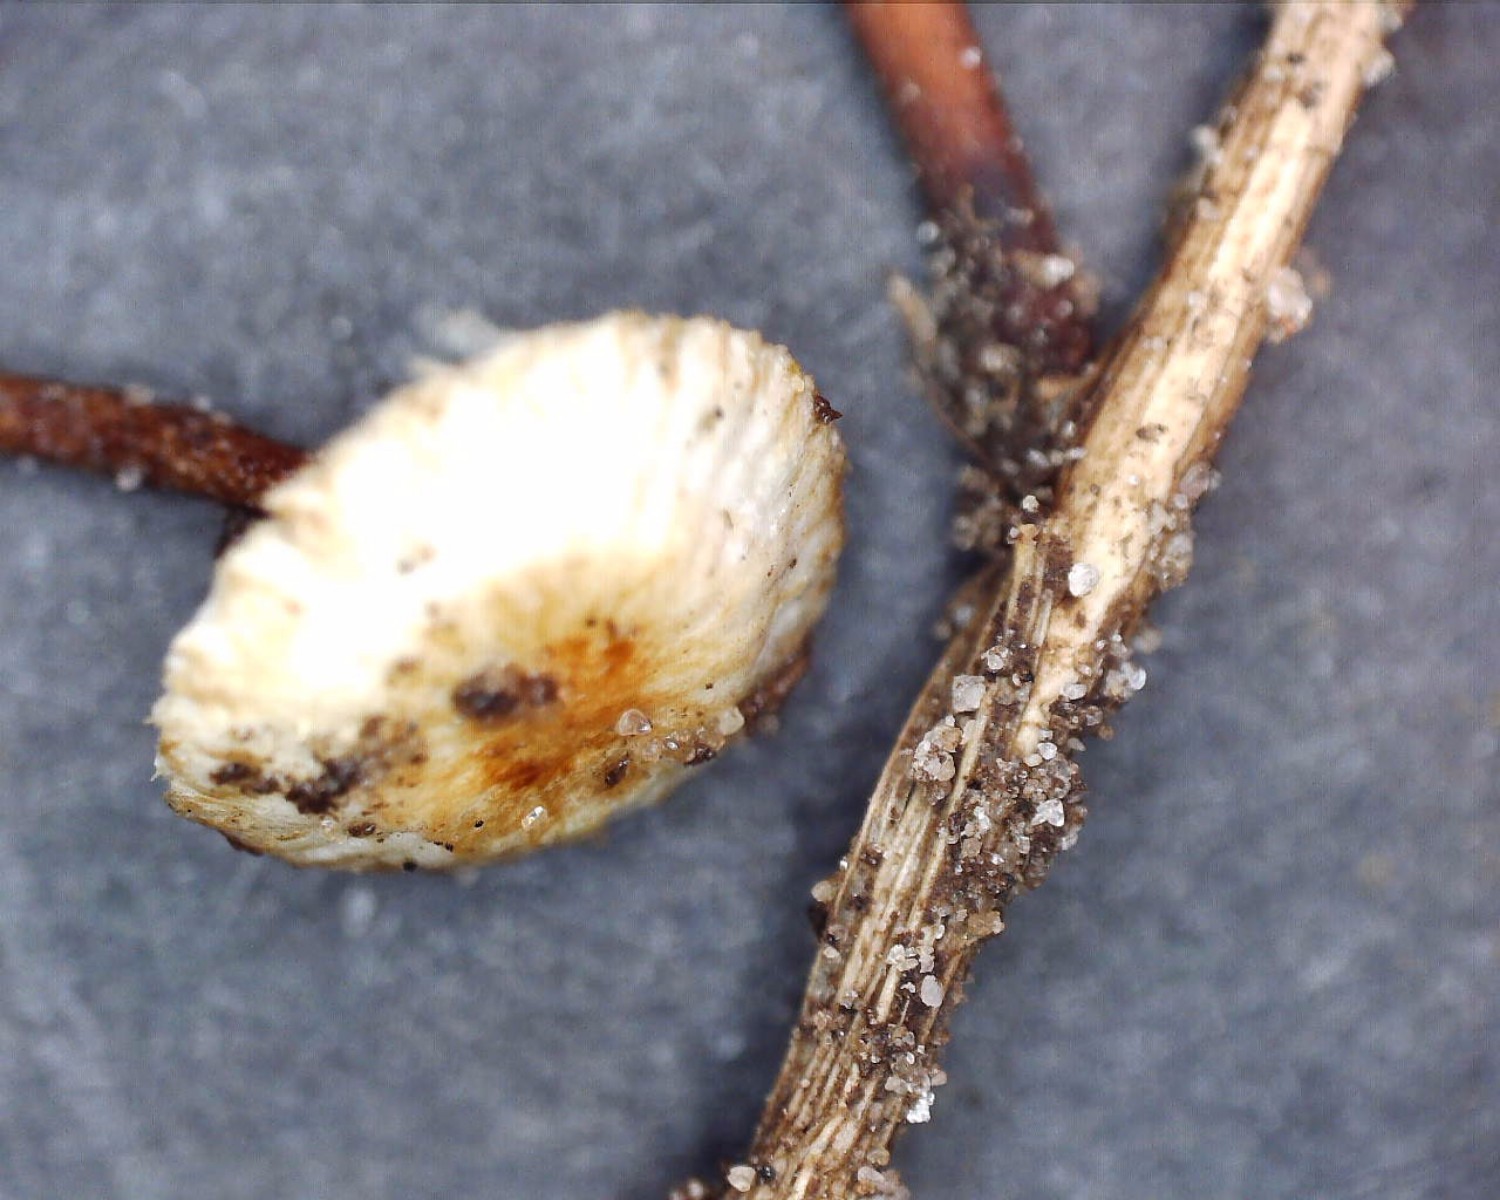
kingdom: Fungi
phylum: Basidiomycota
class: Agaricomycetes
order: Agaricales
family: Marasmiaceae
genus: Crinipellis
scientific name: Crinipellis scabella
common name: børstefod
